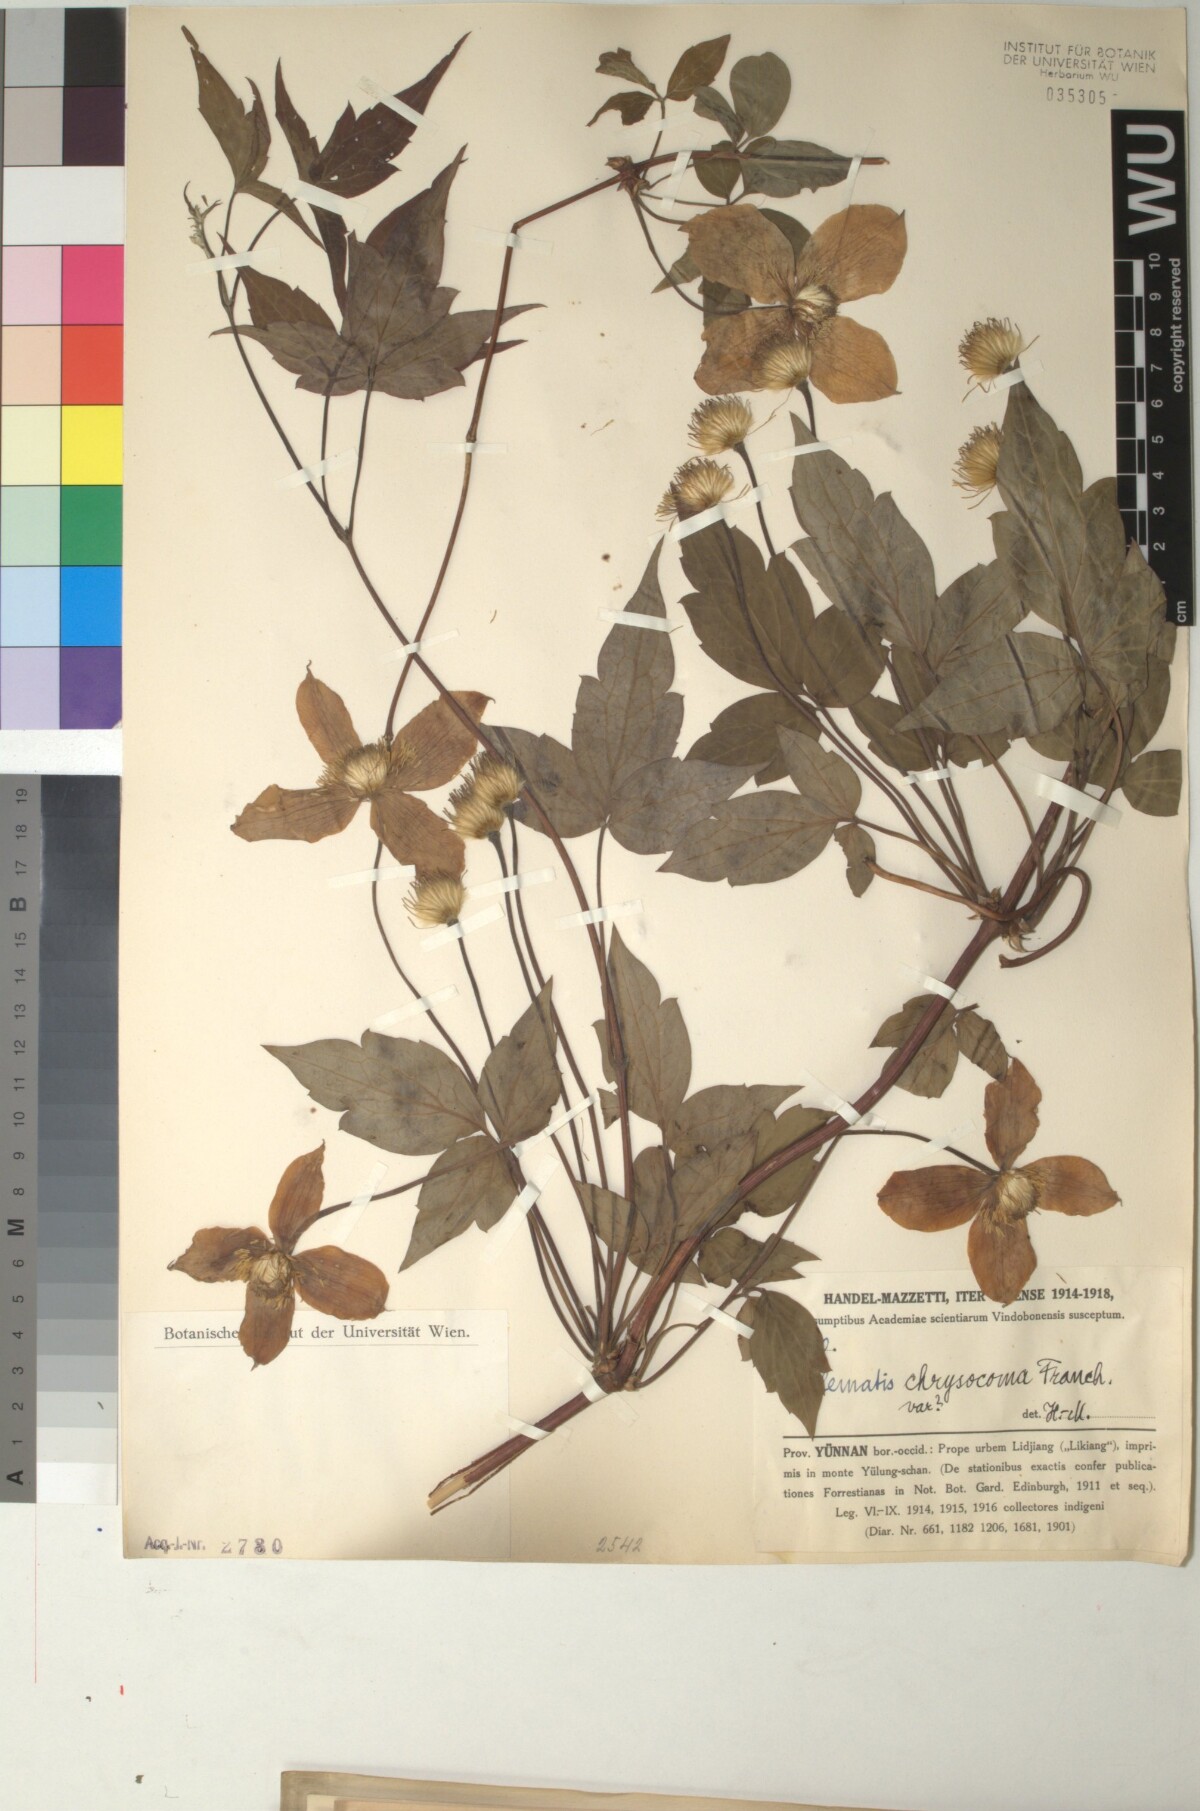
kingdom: Plantae
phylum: Tracheophyta
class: Magnoliopsida
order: Ranunculales
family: Ranunculaceae
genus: Clematis
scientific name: Clematis chrysocoma
